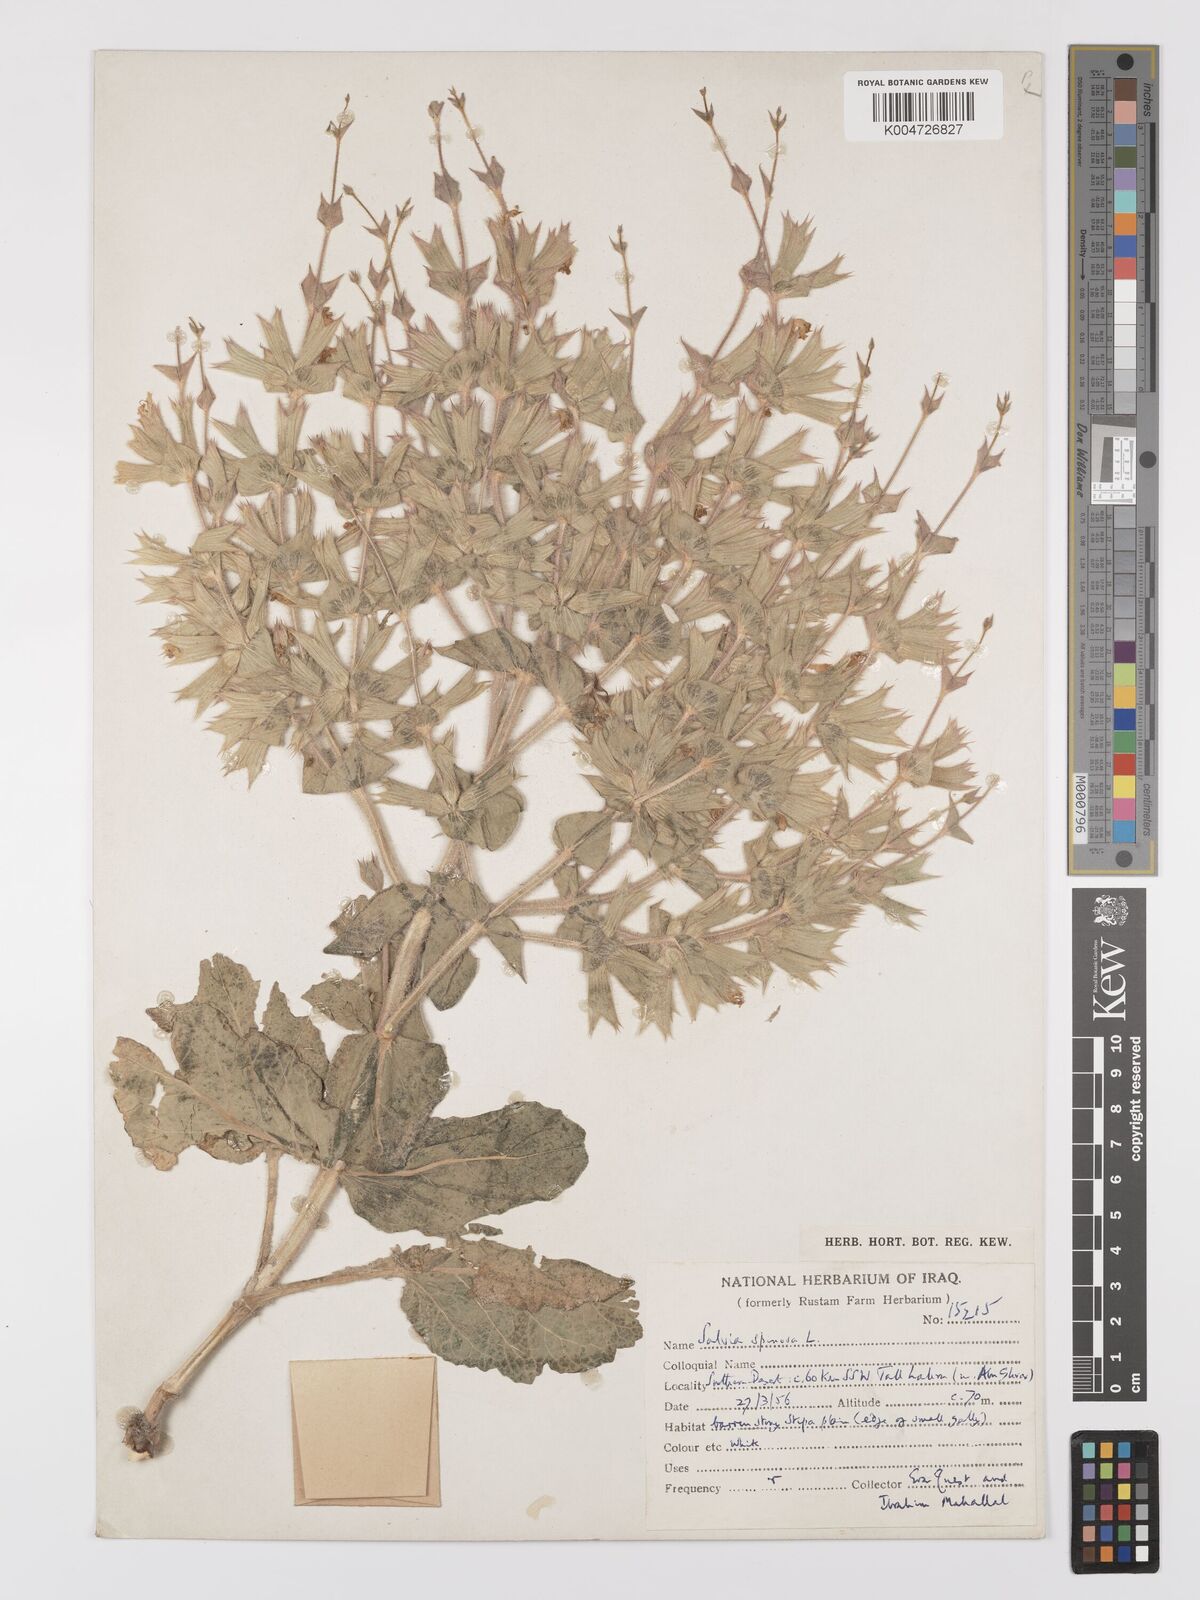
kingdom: Plantae
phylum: Tracheophyta
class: Magnoliopsida
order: Lamiales
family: Lamiaceae
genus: Salvia
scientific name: Salvia
